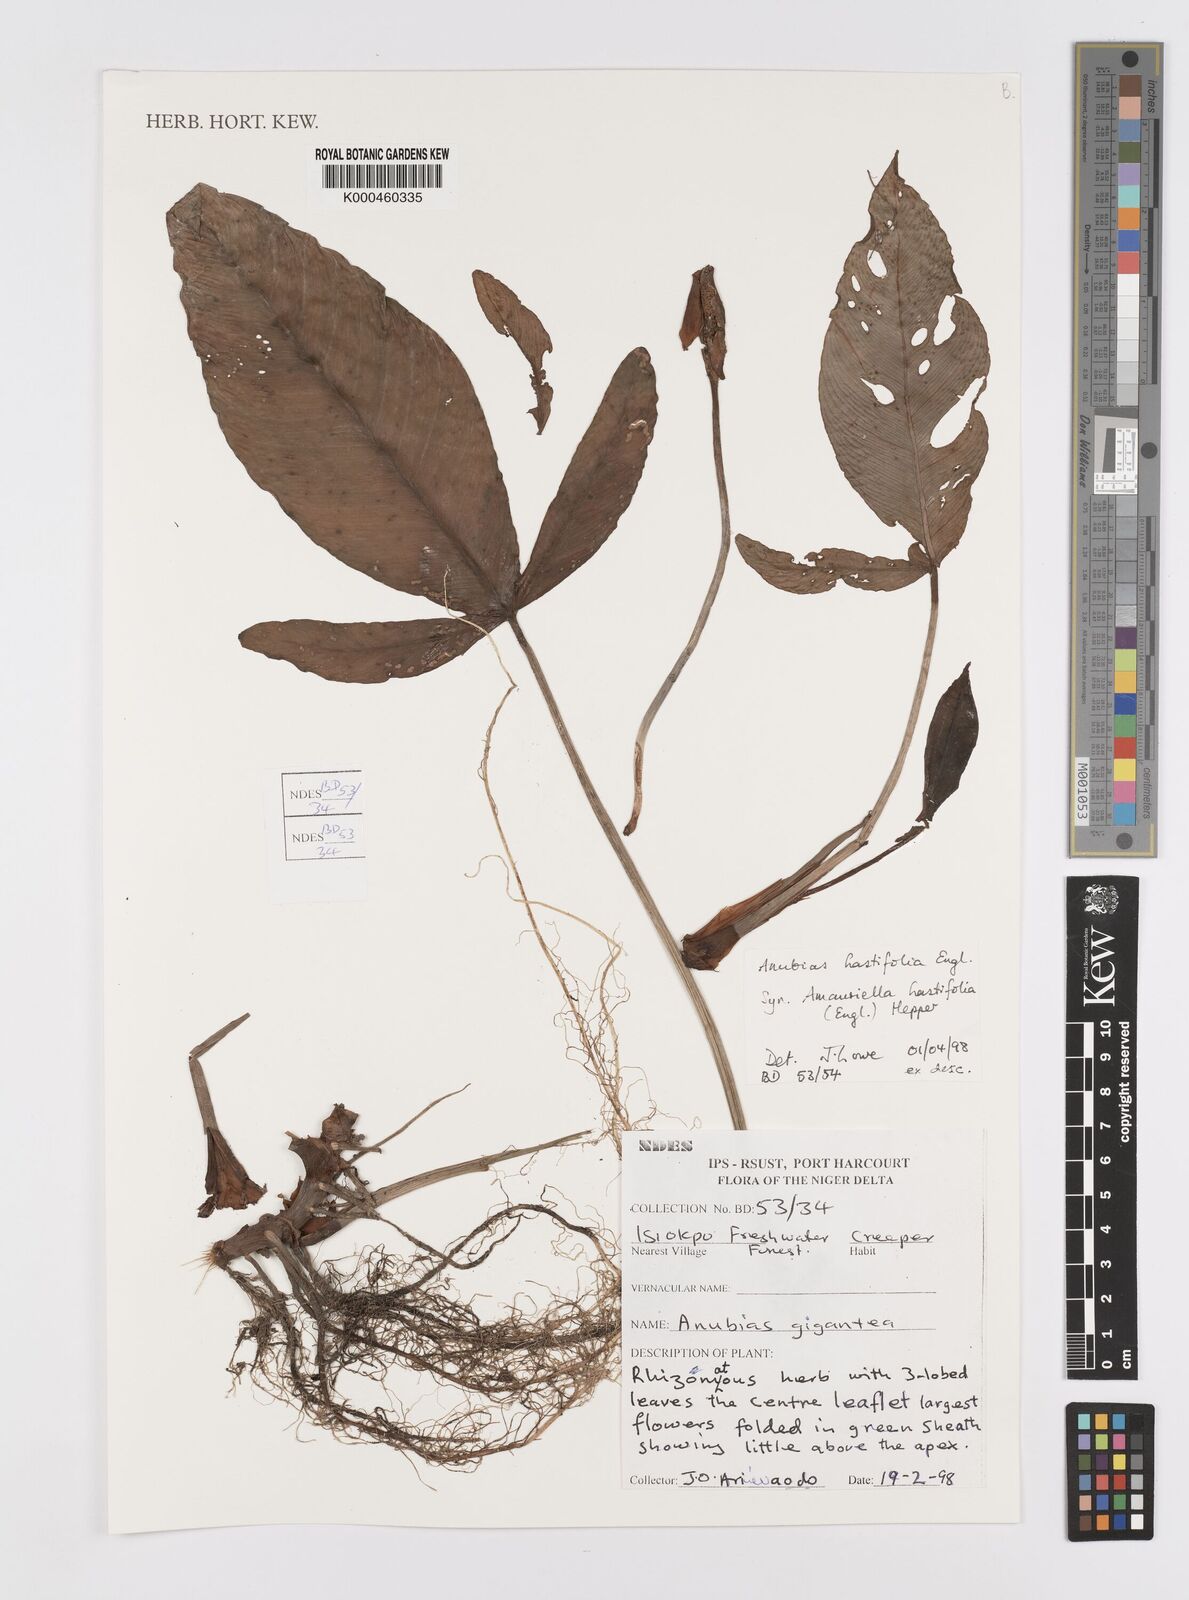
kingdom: Plantae
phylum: Tracheophyta
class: Liliopsida
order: Asparagales
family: Asparagaceae
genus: Drimia
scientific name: Drimia altissima
